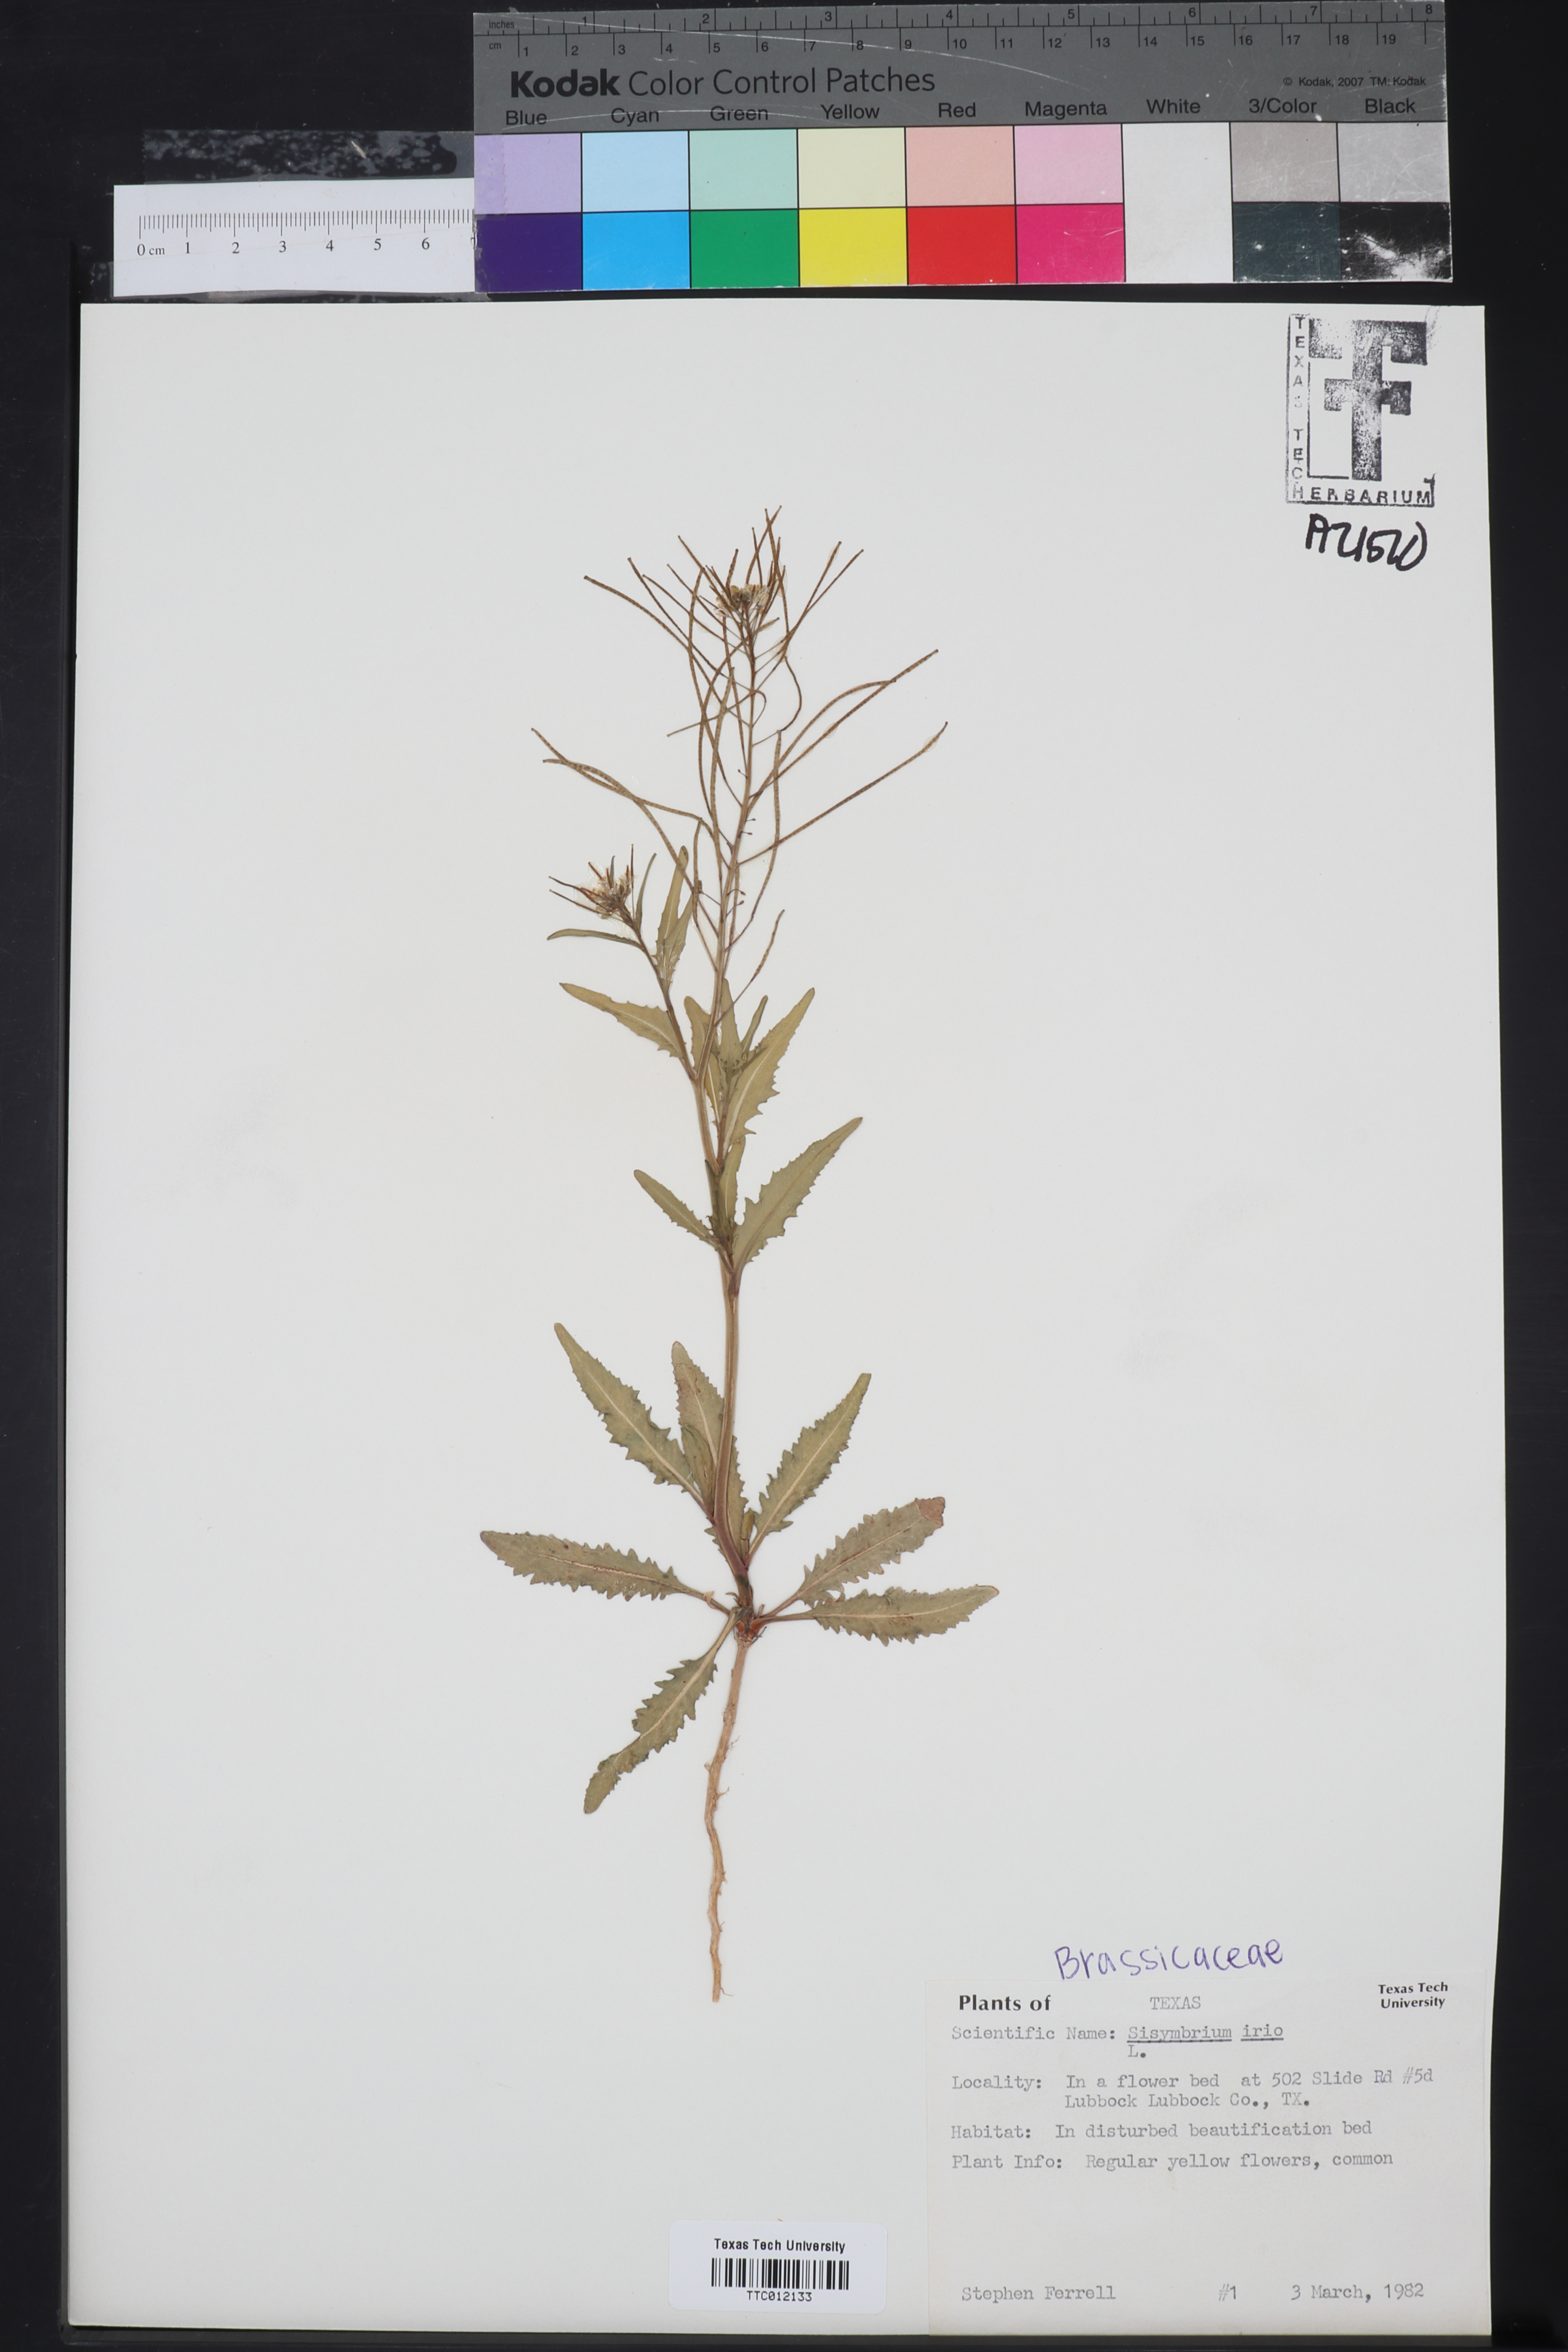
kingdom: Plantae
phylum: Tracheophyta
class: Magnoliopsida
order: Brassicales
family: Brassicaceae
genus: Sisymbrium
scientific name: Sisymbrium irio
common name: London rocket
